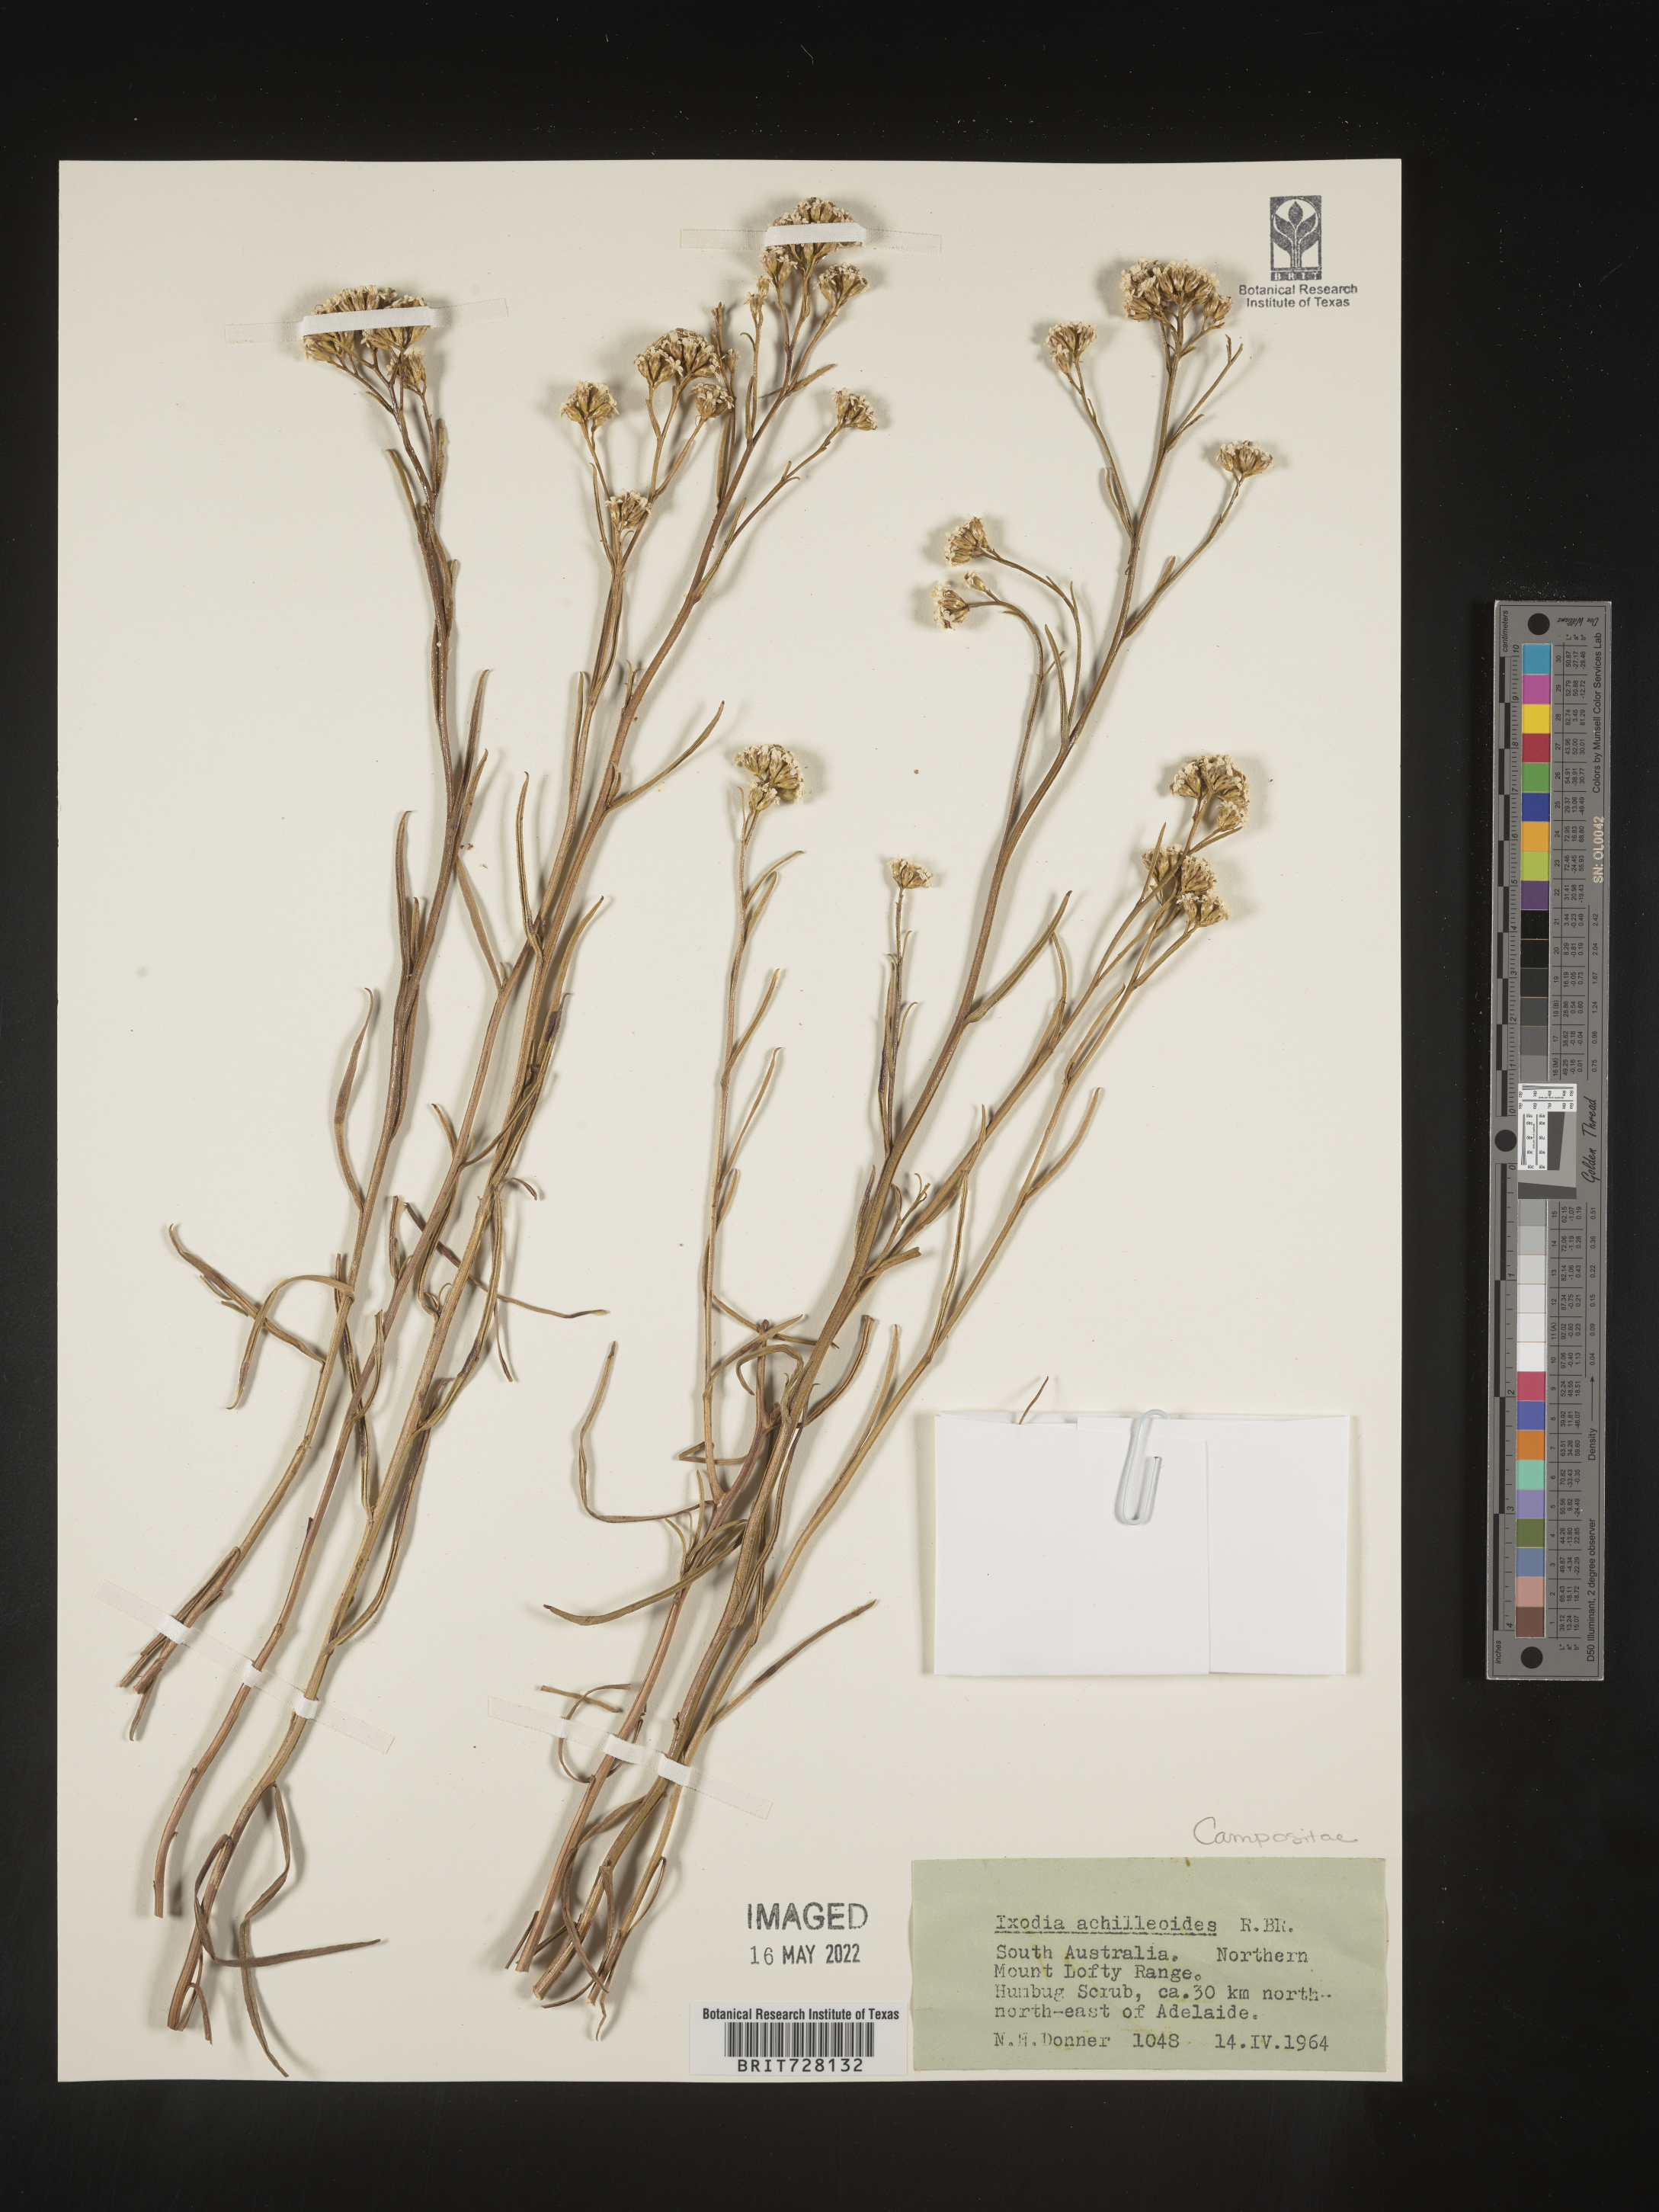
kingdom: Plantae
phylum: Tracheophyta
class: Magnoliopsida
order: Asterales
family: Asteraceae
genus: Ixodia
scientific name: Ixodia
